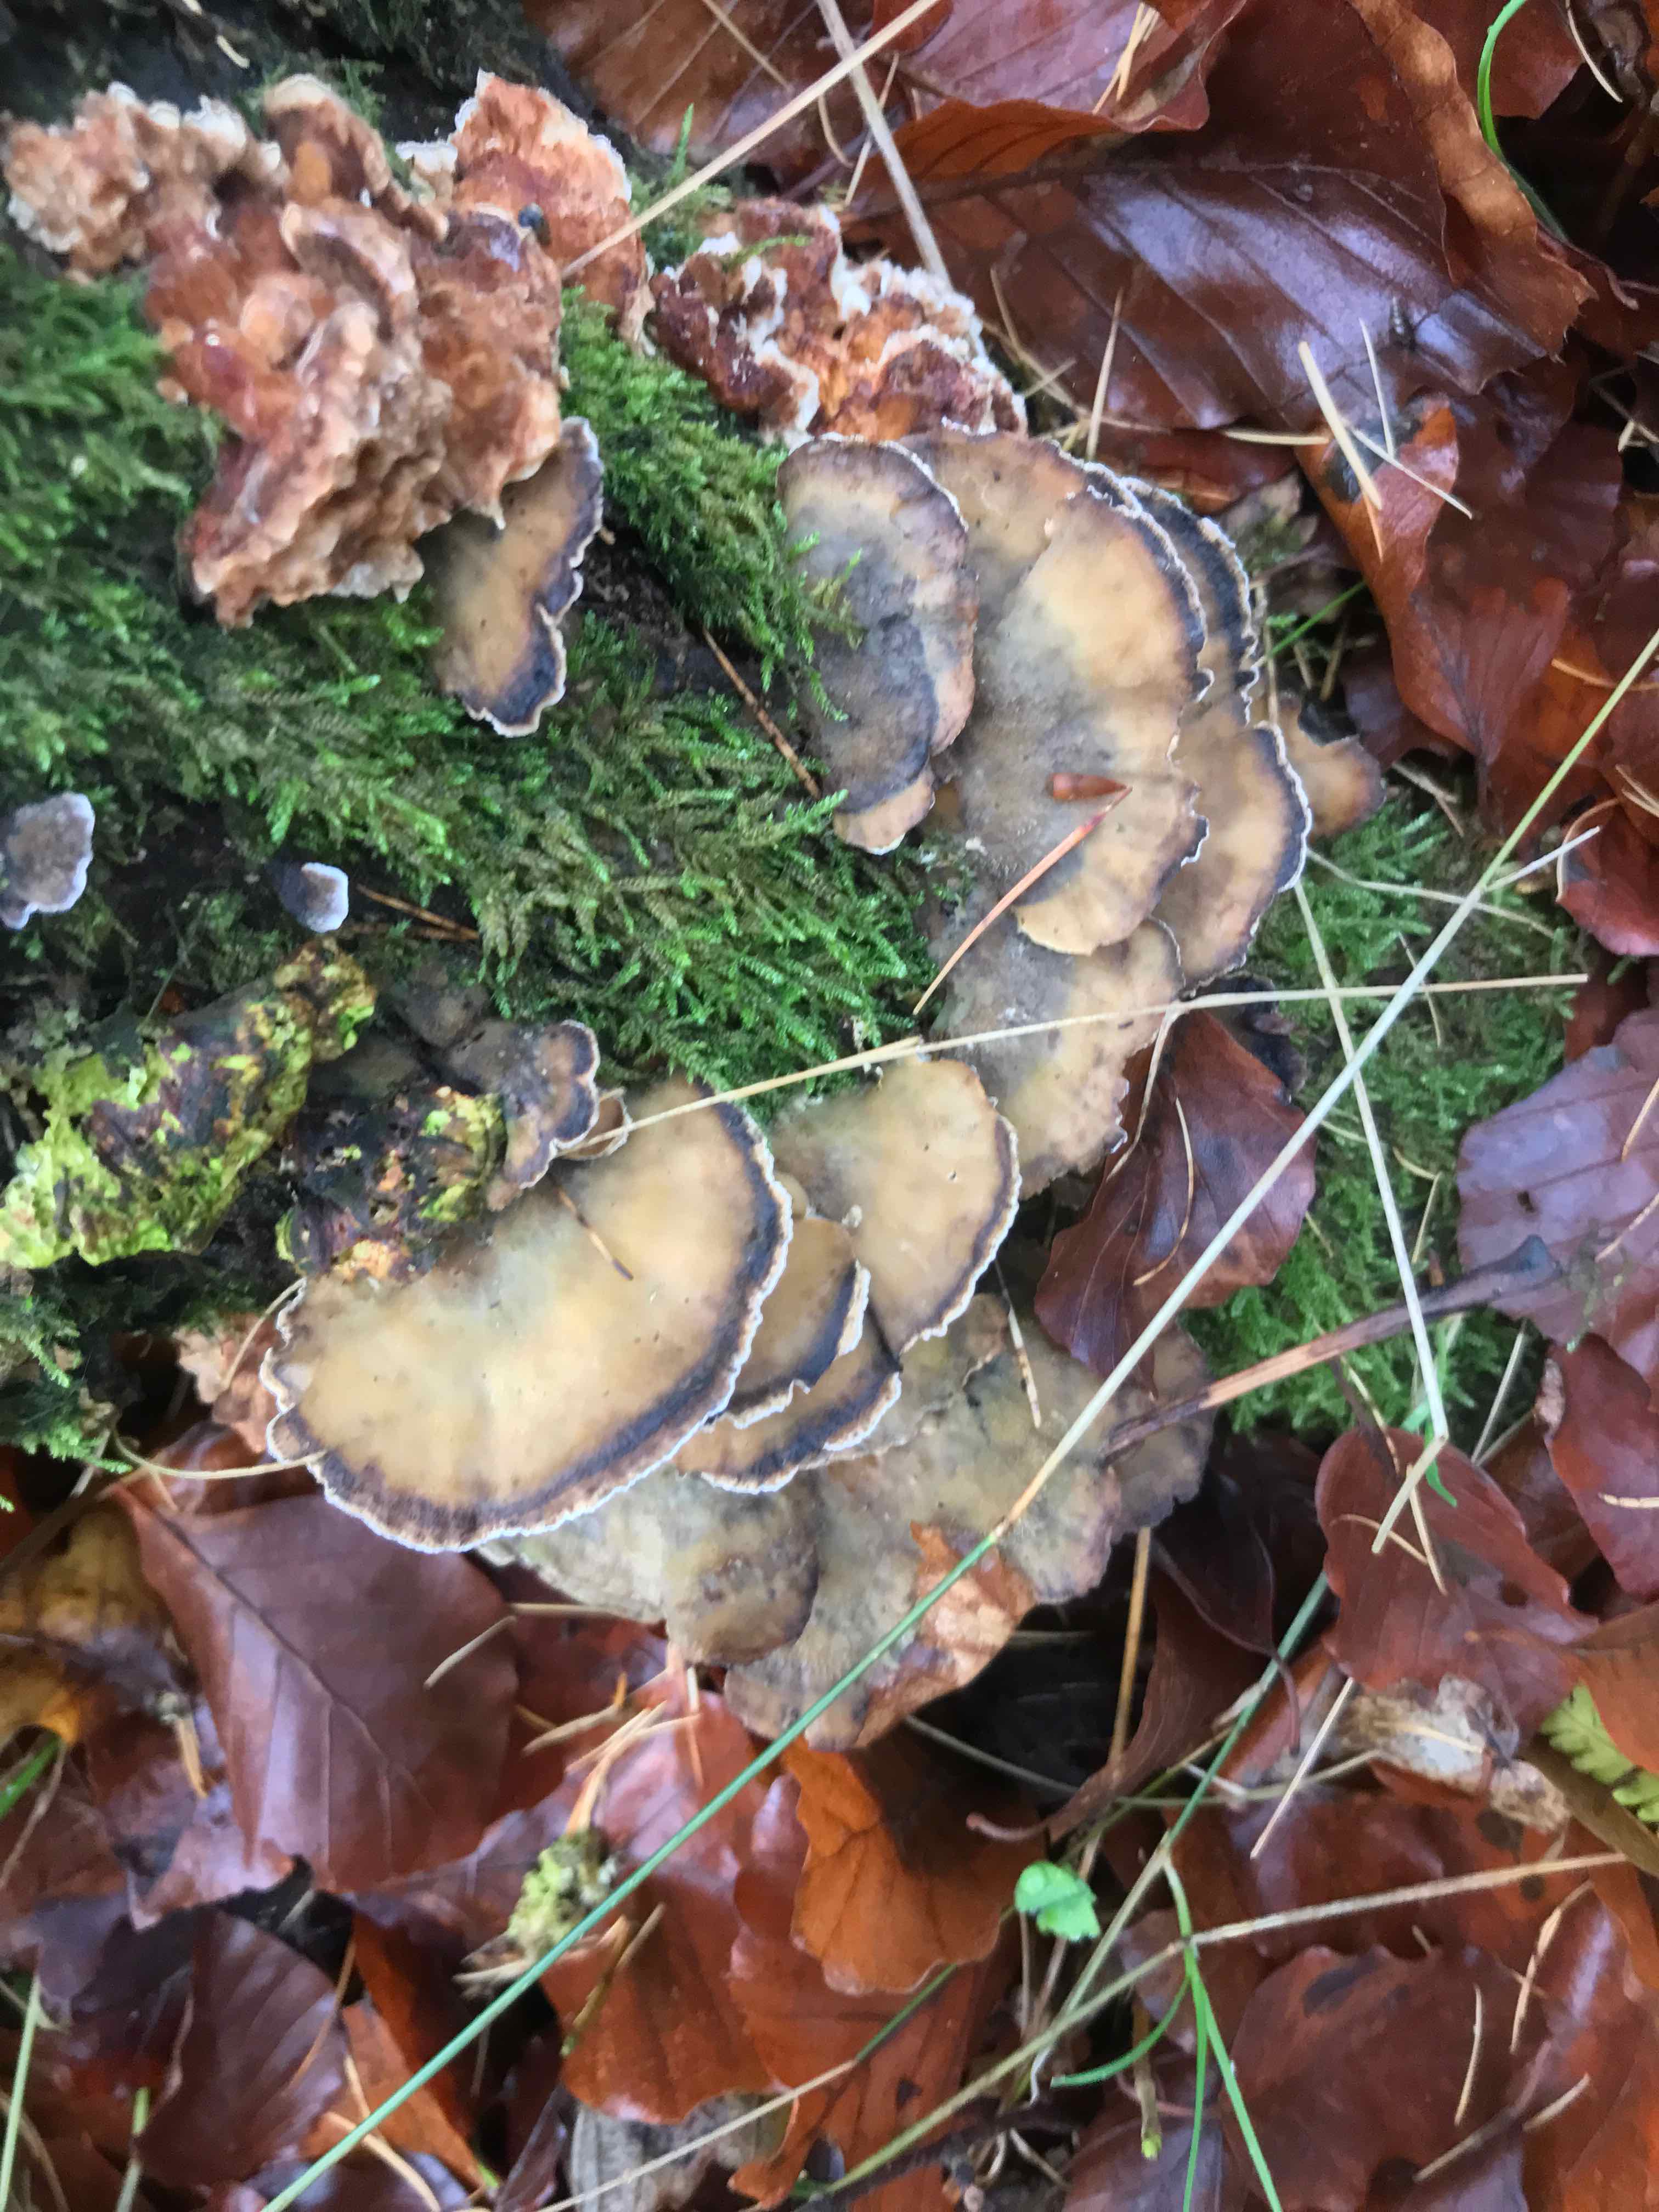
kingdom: Fungi
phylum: Basidiomycota
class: Agaricomycetes
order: Polyporales
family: Phanerochaetaceae
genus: Bjerkandera
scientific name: Bjerkandera adusta
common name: sveden sodporesvamp
